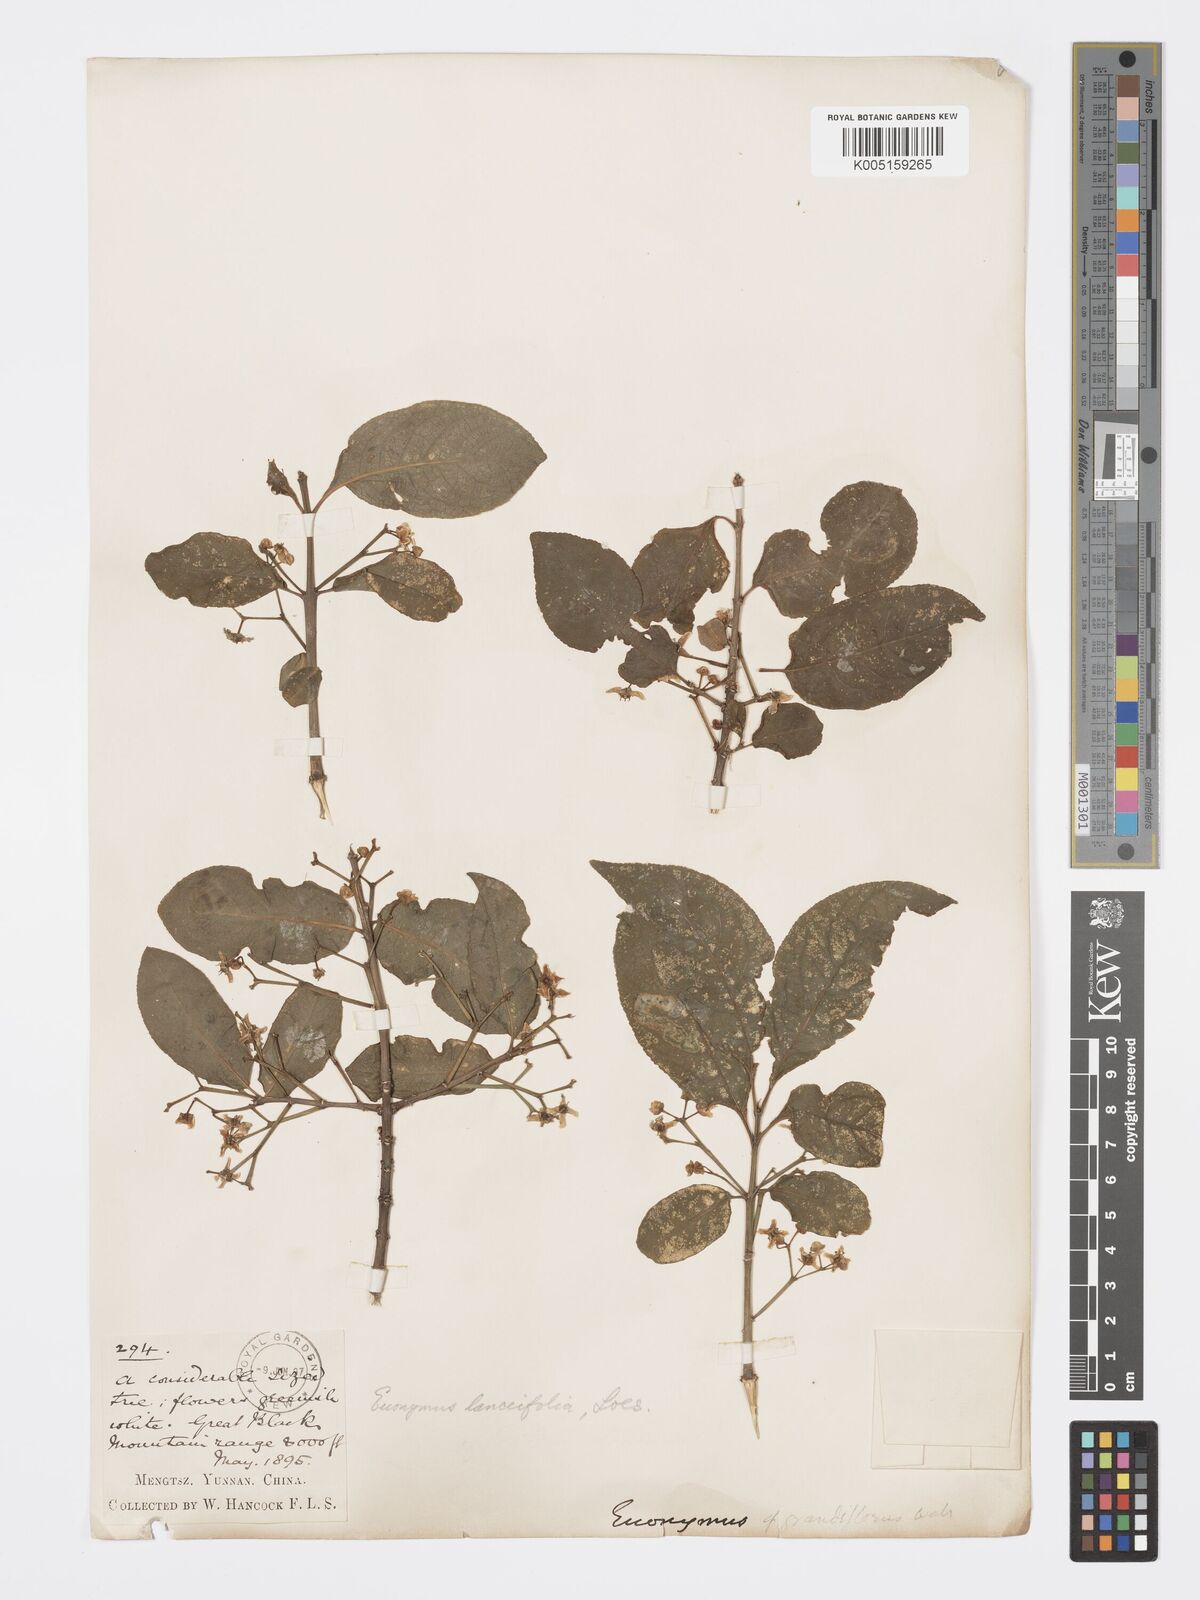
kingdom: Plantae
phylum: Tracheophyta
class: Magnoliopsida
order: Celastrales
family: Celastraceae
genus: Euonymus
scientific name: Euonymus hamiltonianus
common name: Hamilton's spindletree
